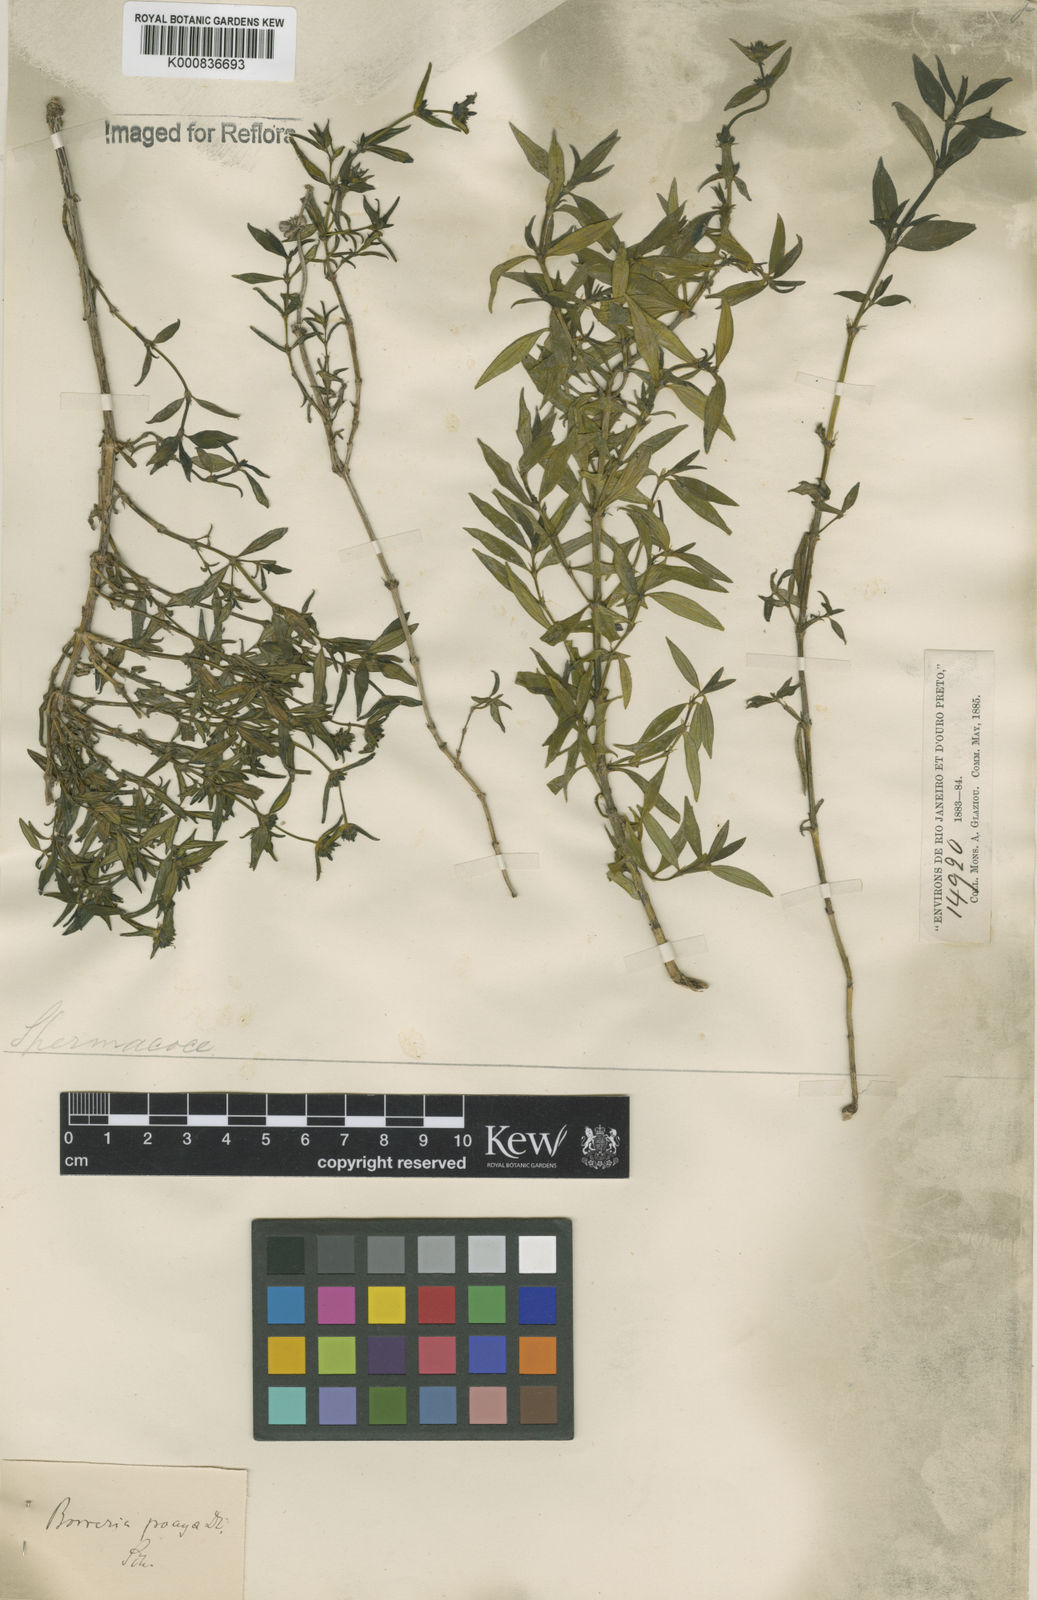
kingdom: Plantae
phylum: Tracheophyta
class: Magnoliopsida
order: Gentianales
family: Rubiaceae
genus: Spermacoce
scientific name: Spermacoce poaya
